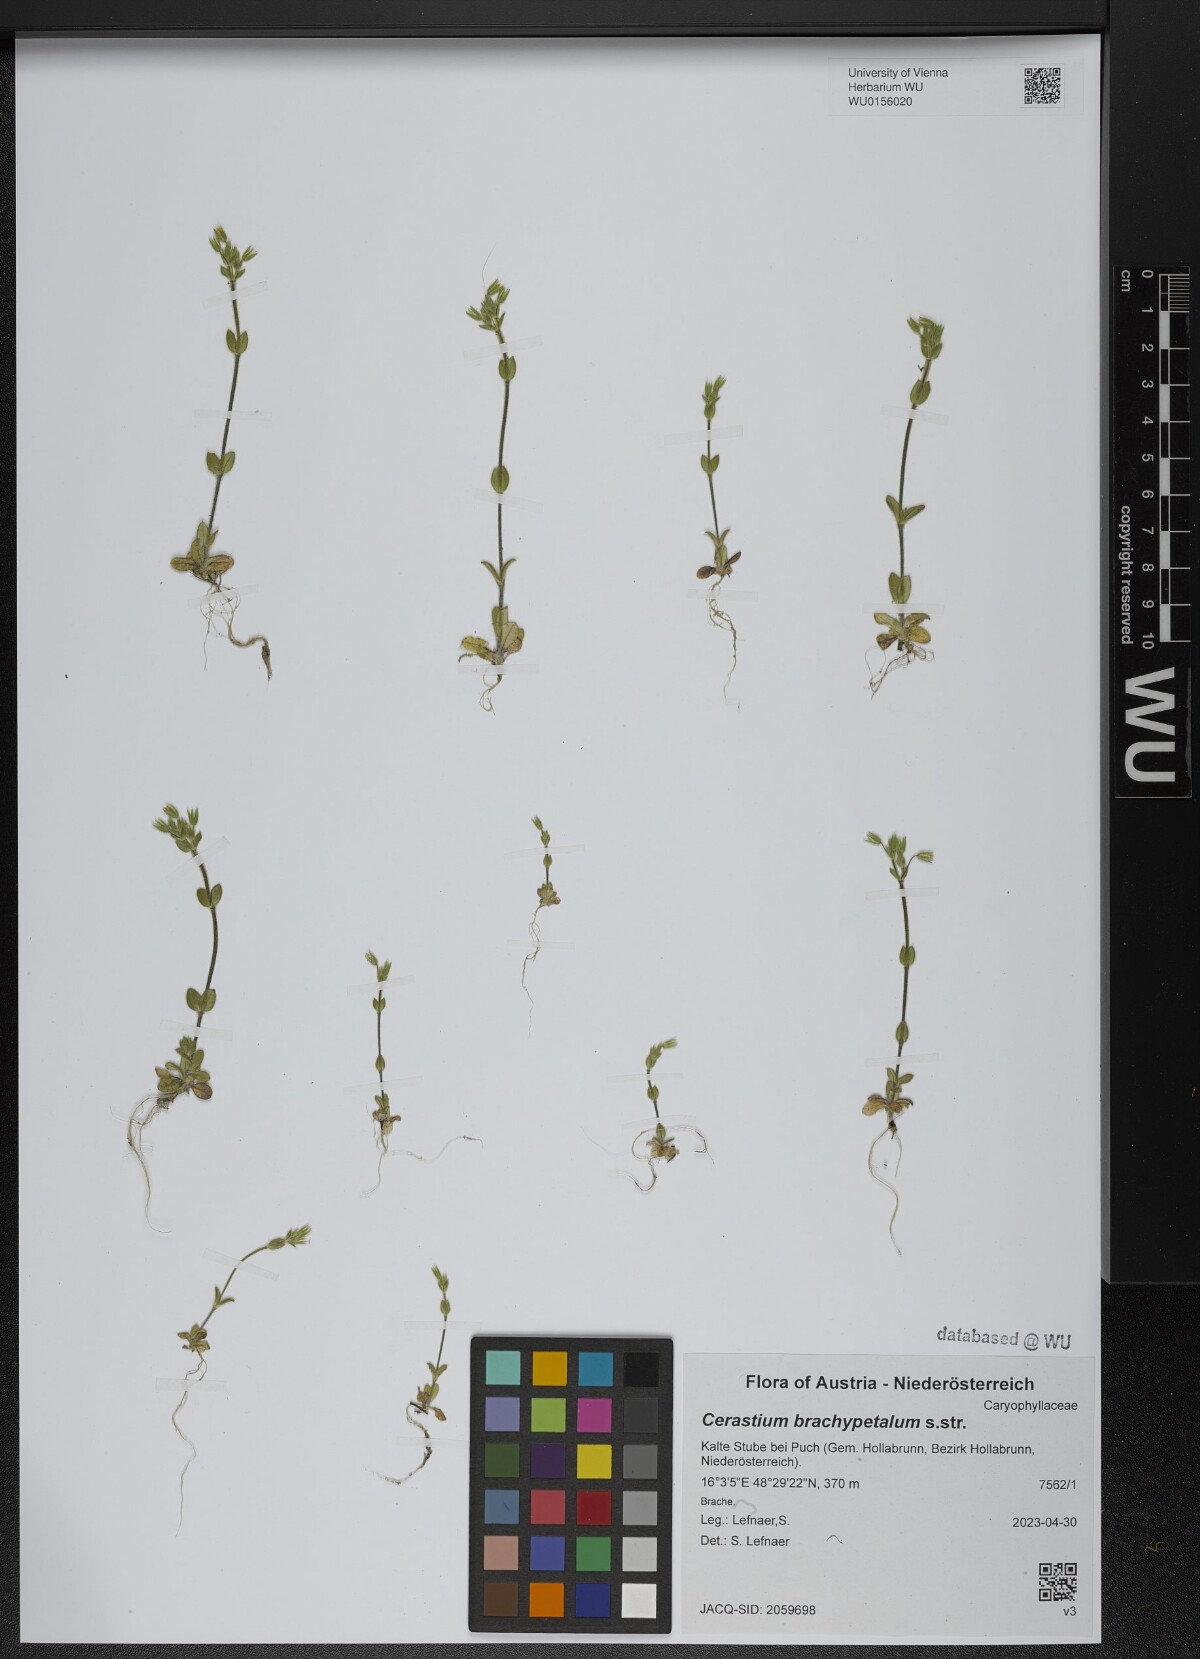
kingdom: Plantae
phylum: Tracheophyta
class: Magnoliopsida
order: Caryophyllales
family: Caryophyllaceae
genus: Cerastium
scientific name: Cerastium brachypetalum
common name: Grey mouse-ear
